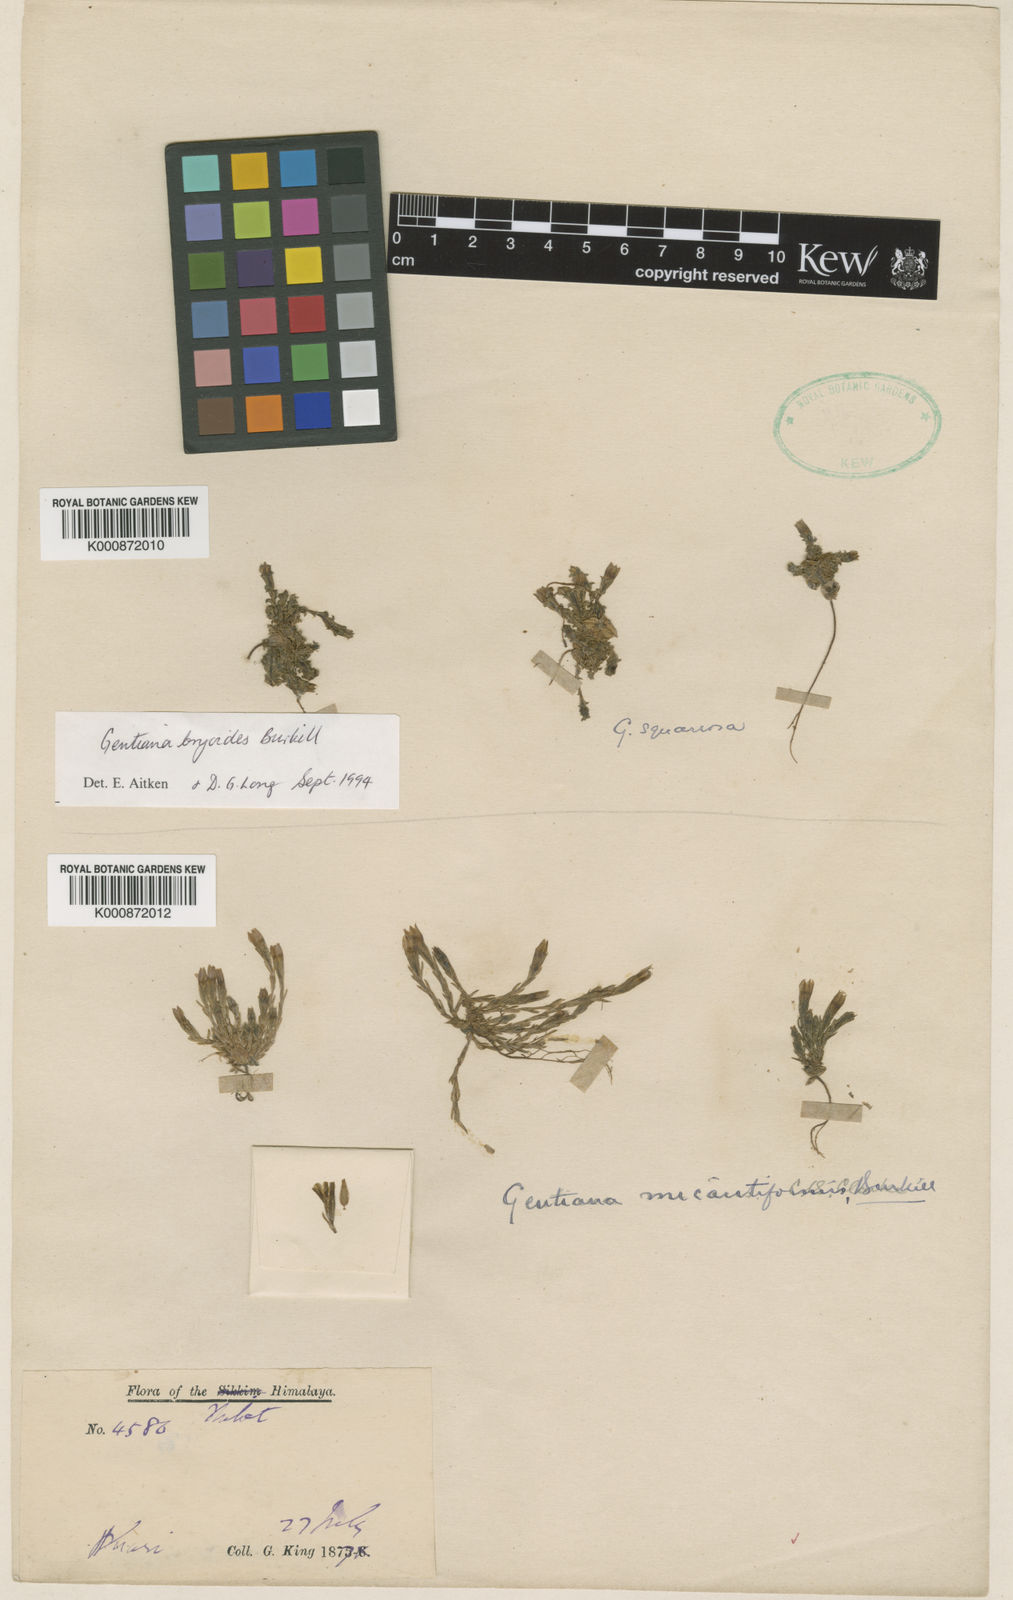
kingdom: Plantae
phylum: Tracheophyta
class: Magnoliopsida
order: Gentianales
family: Gentianaceae
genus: Gentiana
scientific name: Gentiana micantiformis
